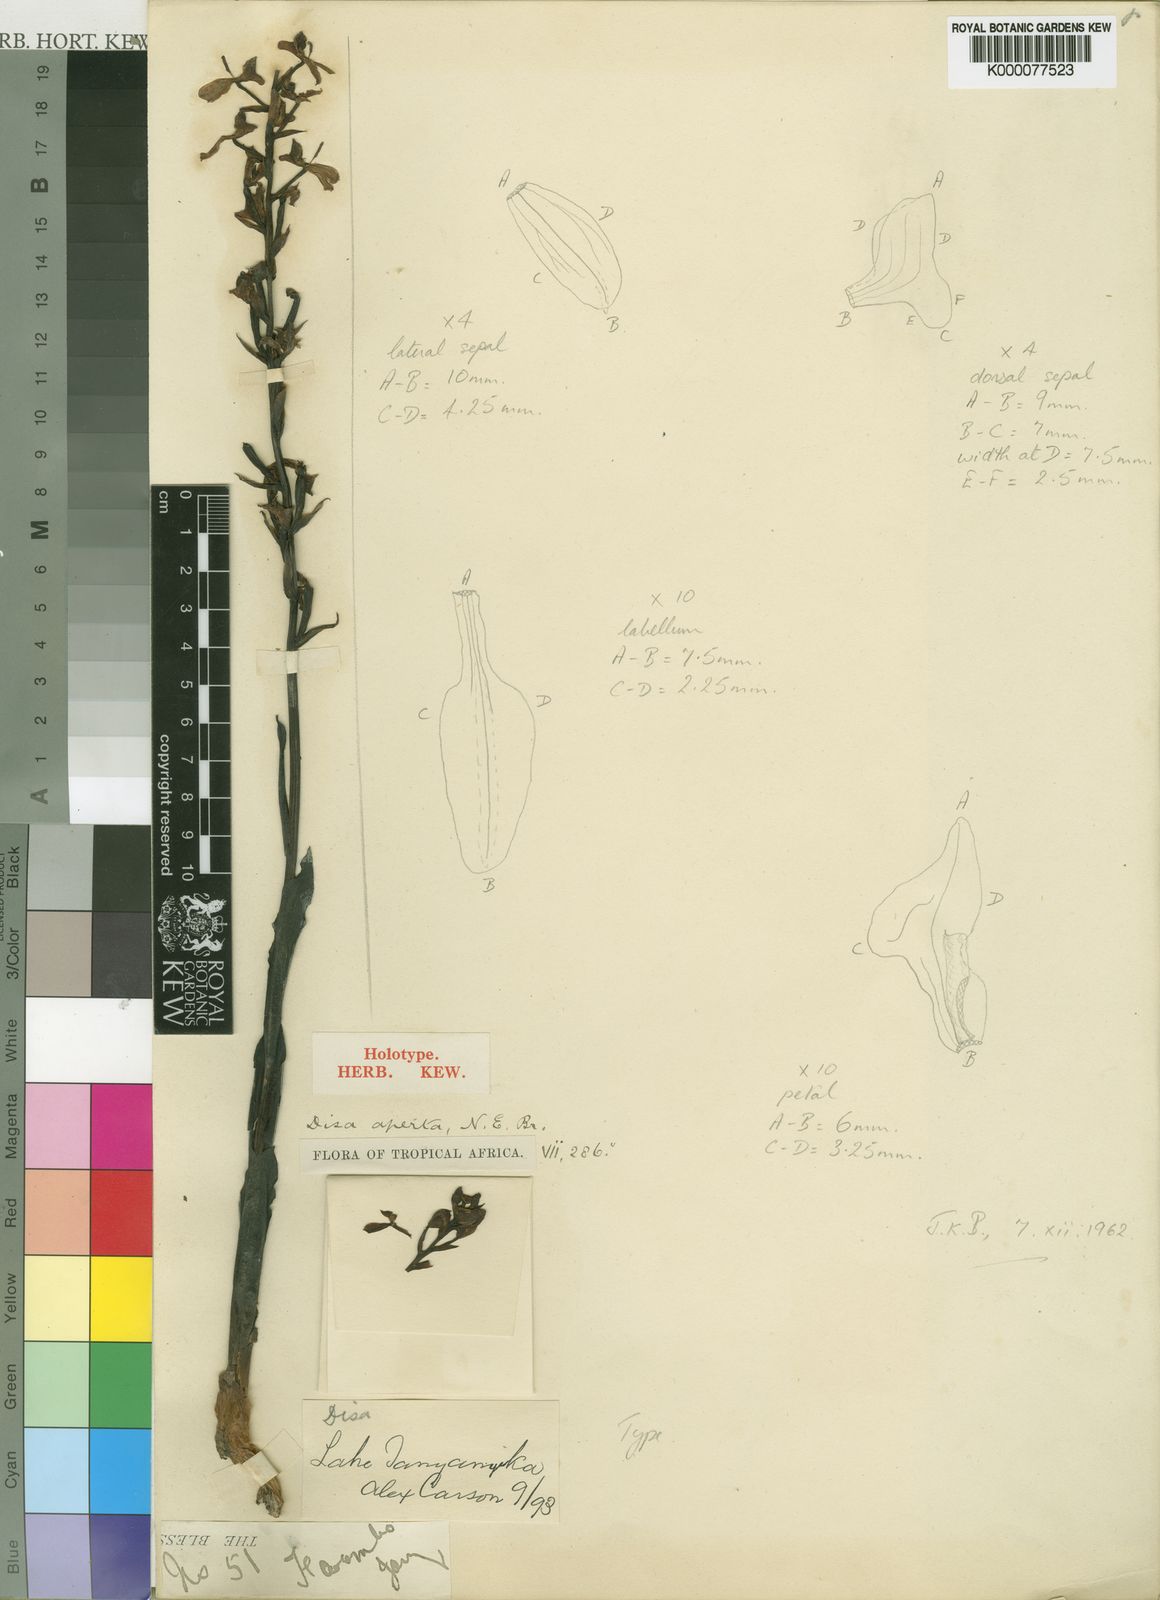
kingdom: Plantae
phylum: Tracheophyta
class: Liliopsida
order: Asparagales
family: Orchidaceae
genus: Disa
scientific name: Disa aperta
